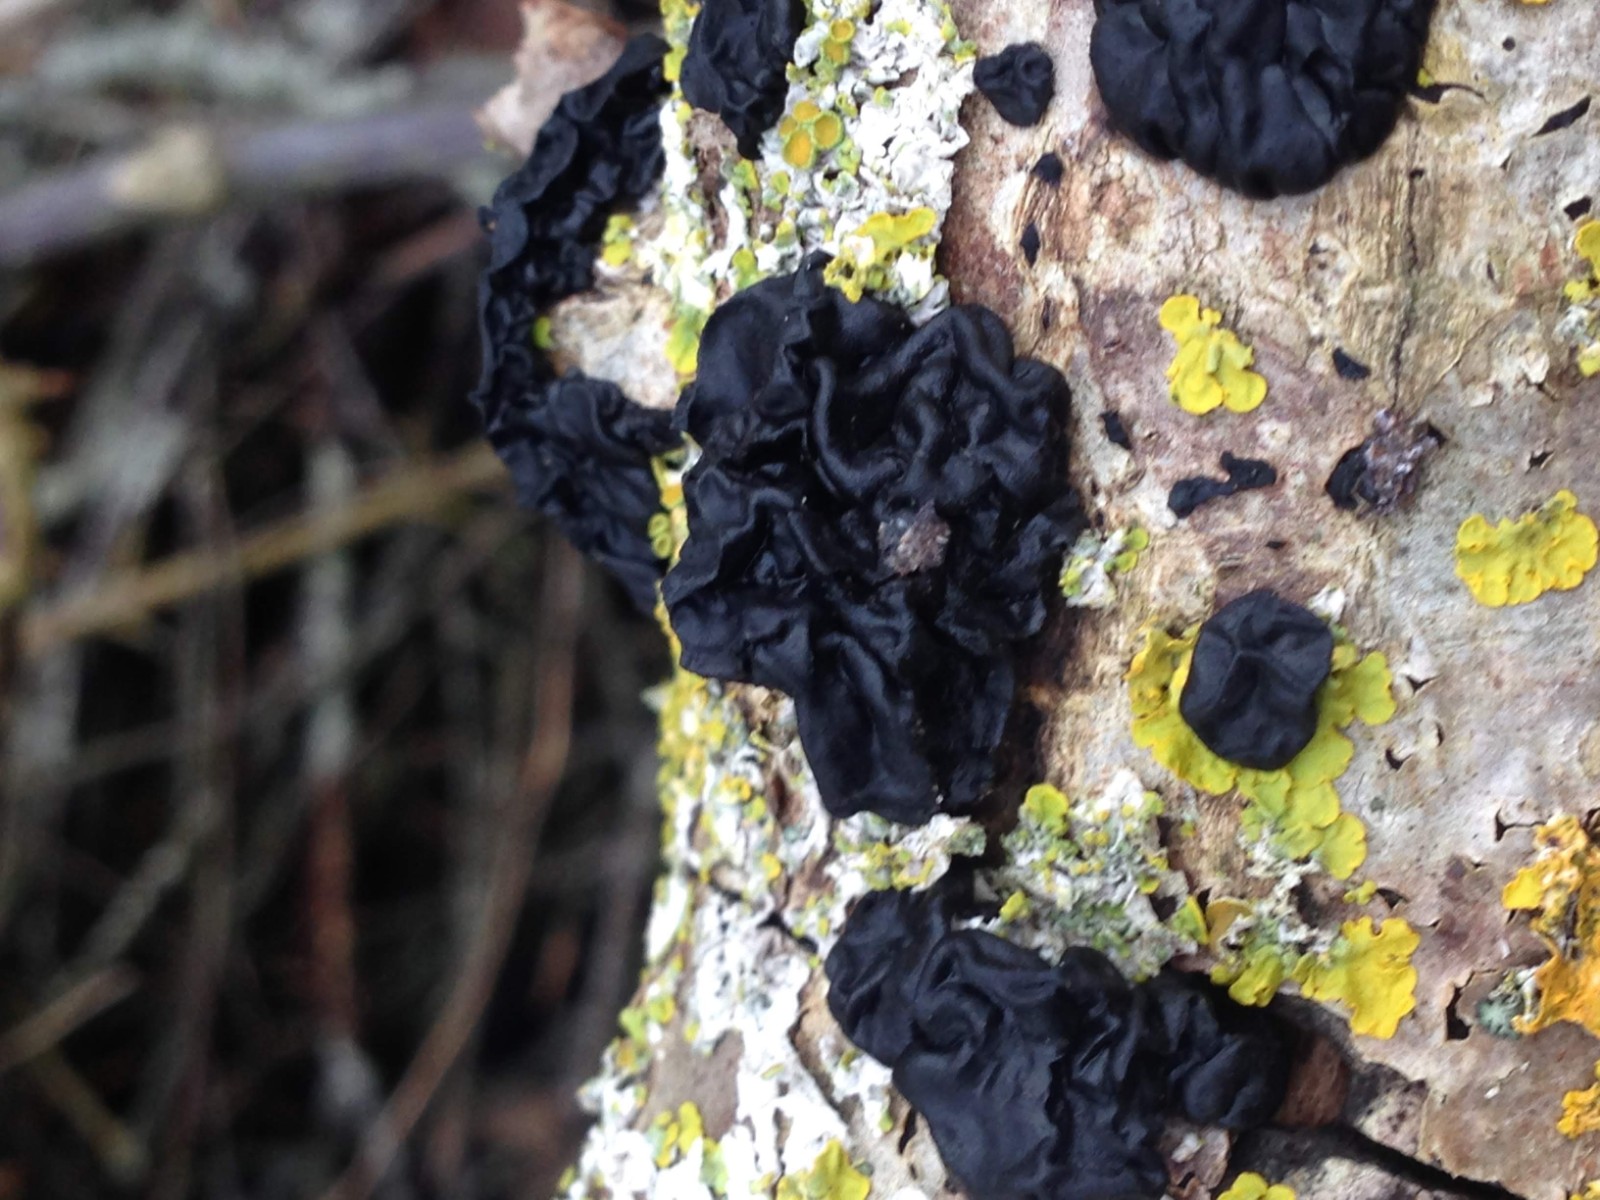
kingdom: Fungi
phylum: Basidiomycota
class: Agaricomycetes
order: Auriculariales
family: Auriculariaceae
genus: Exidia
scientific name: Exidia nigricans
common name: almindelig bævretop
